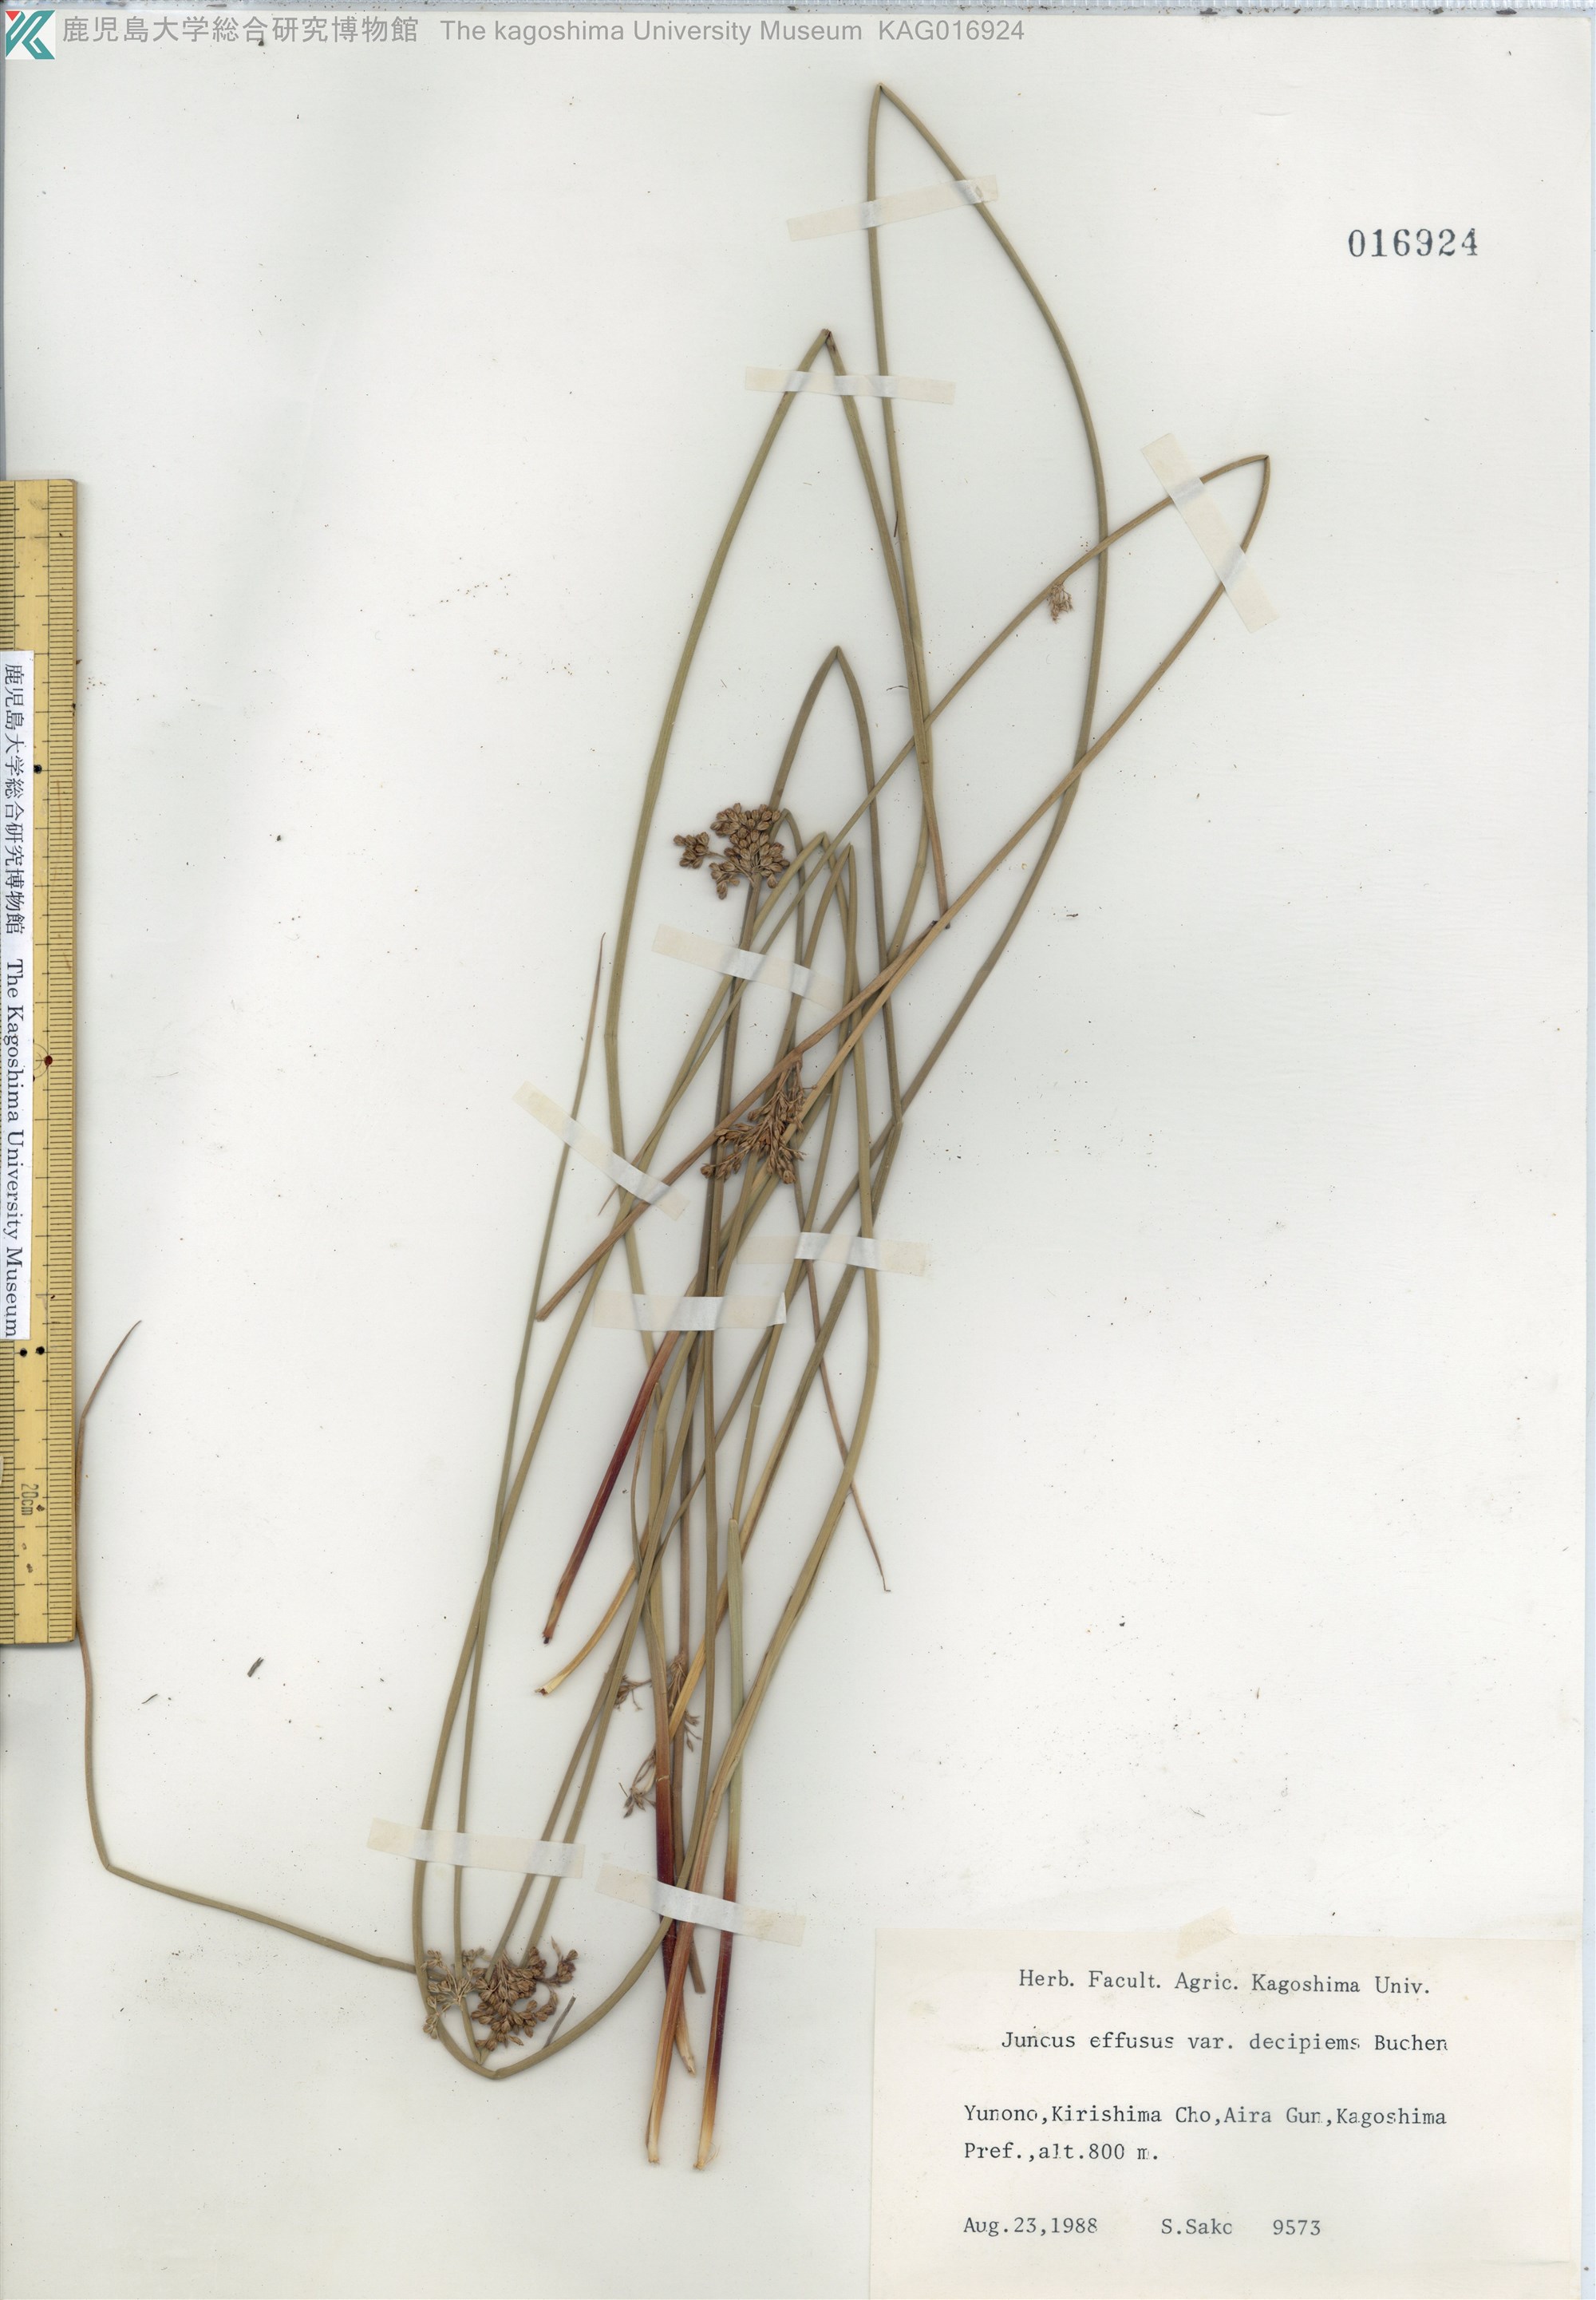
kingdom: Plantae
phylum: Tracheophyta
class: Liliopsida
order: Poales
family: Juncaceae
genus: Juncus
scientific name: Juncus decipiens
